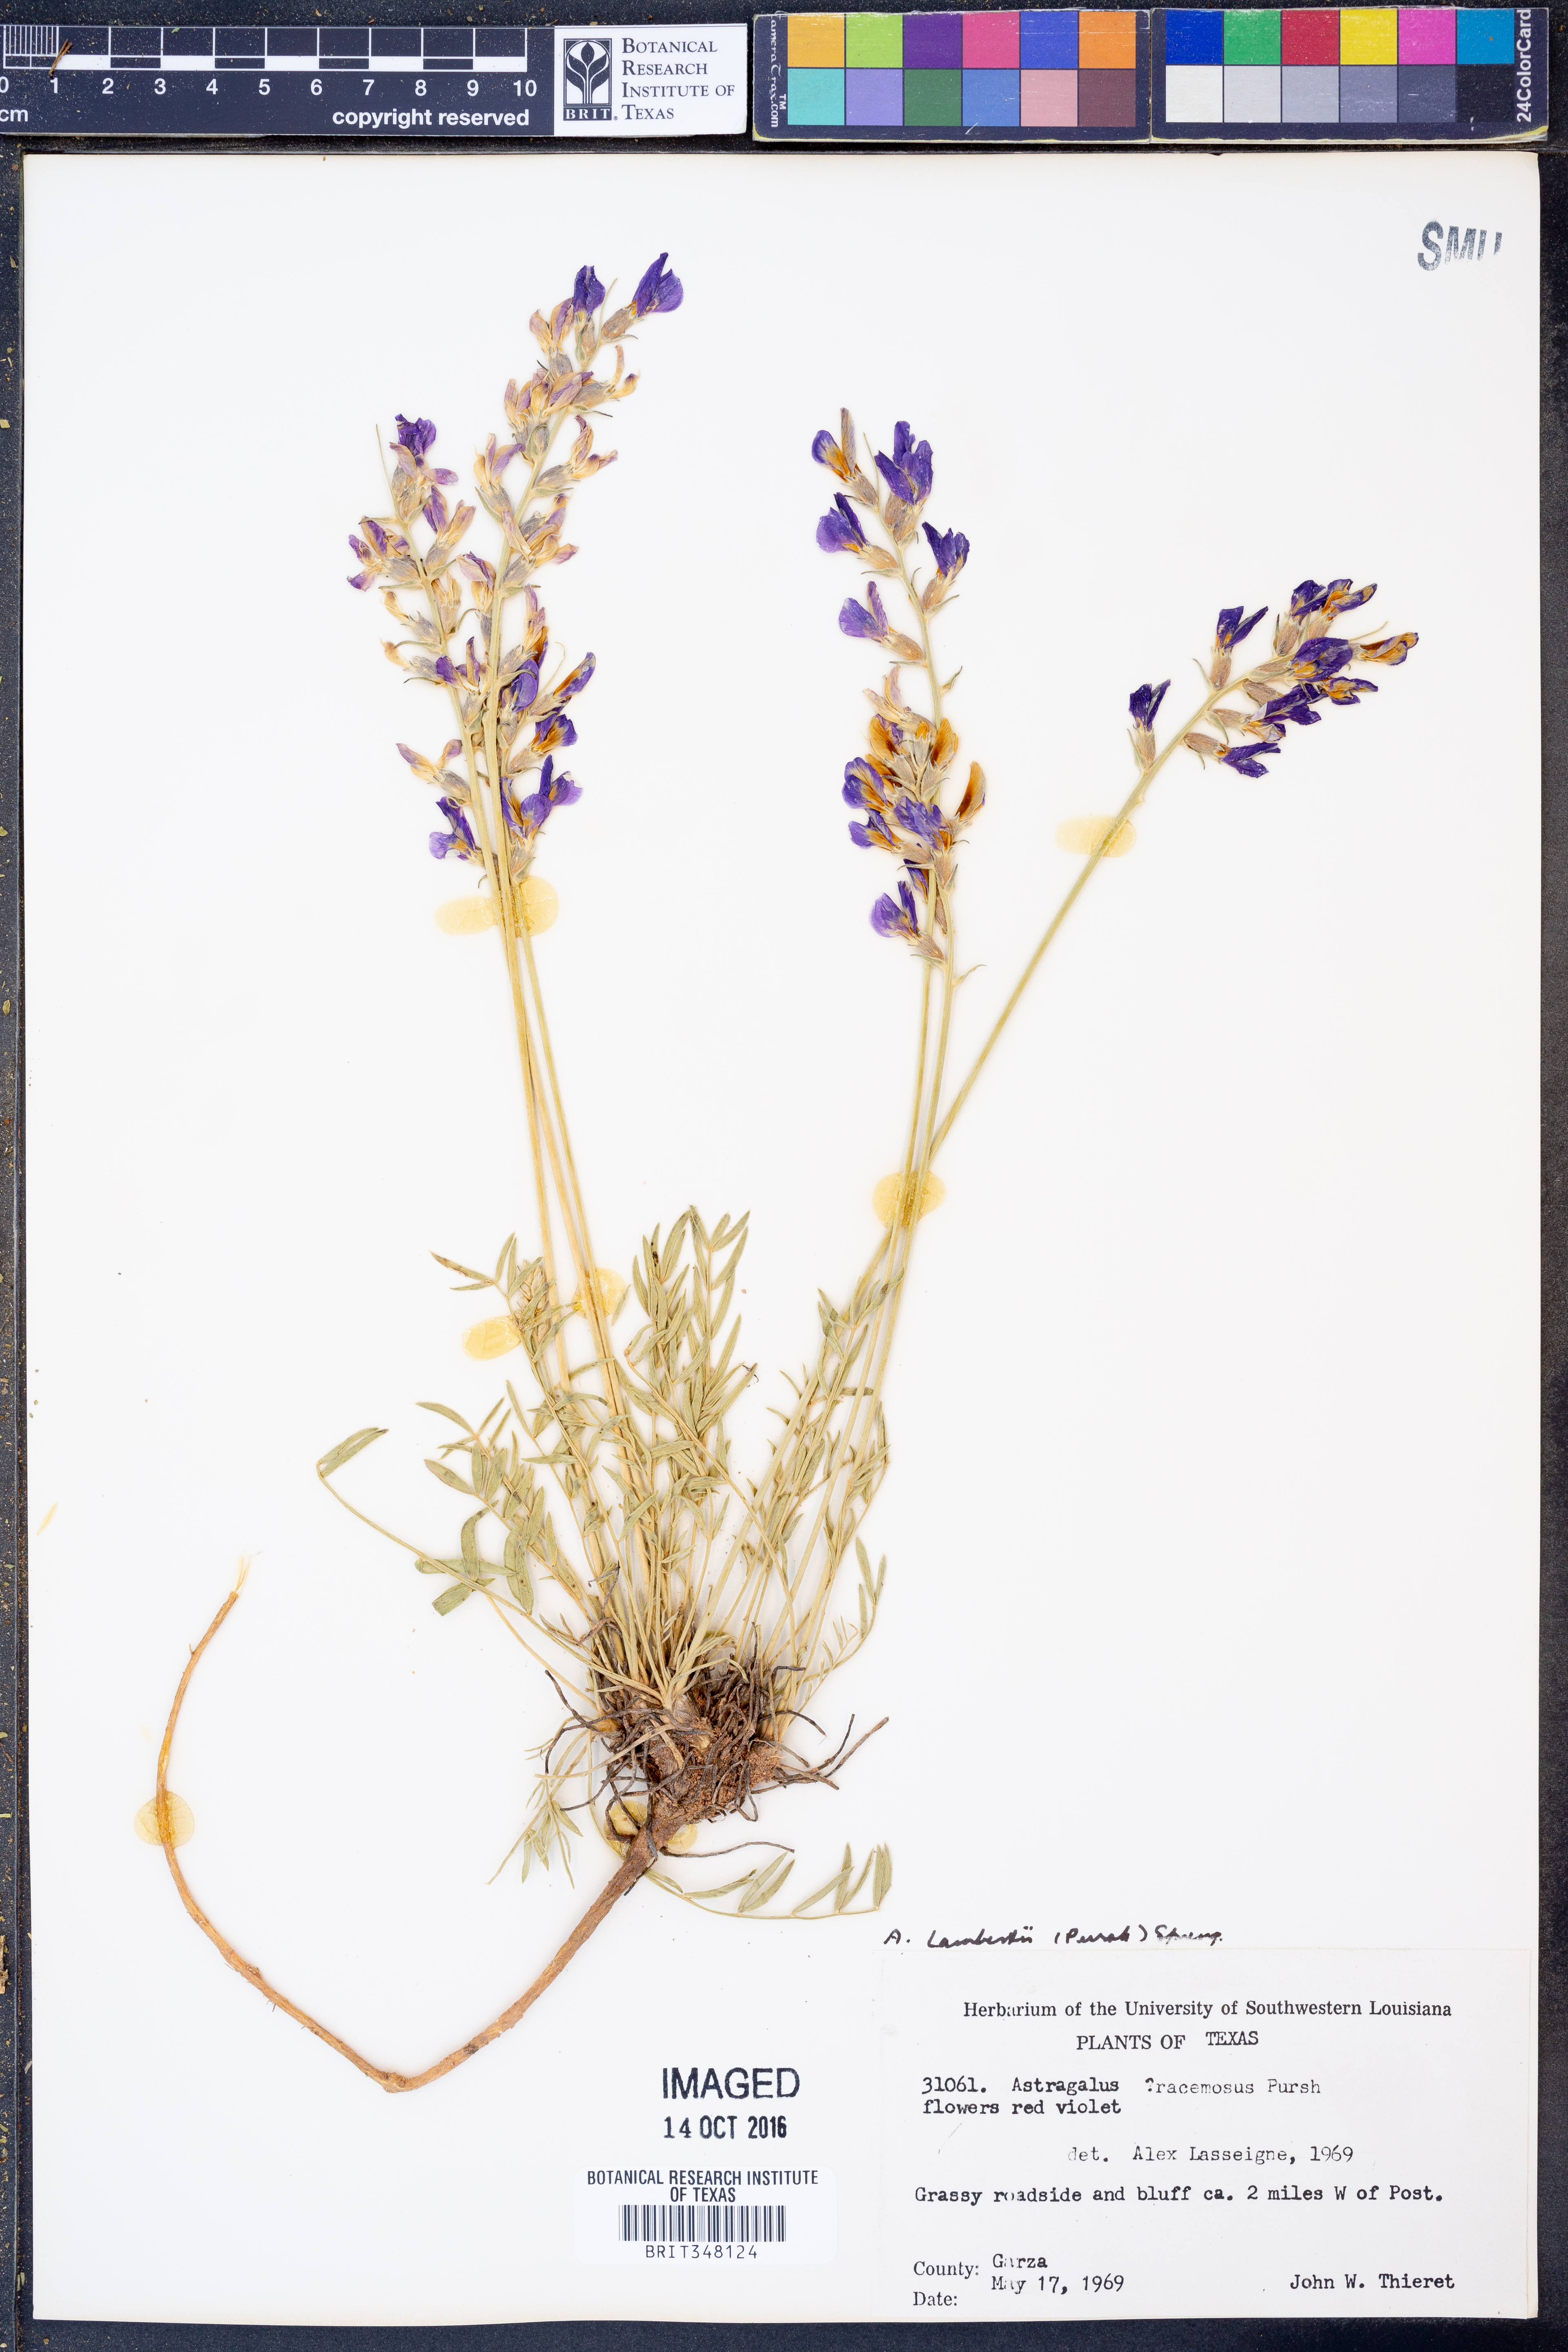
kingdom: Plantae
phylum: Tracheophyta
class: Magnoliopsida
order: Fabales
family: Fabaceae
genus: Oxytropis
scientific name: Oxytropis lambertii
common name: Purple locoweed
